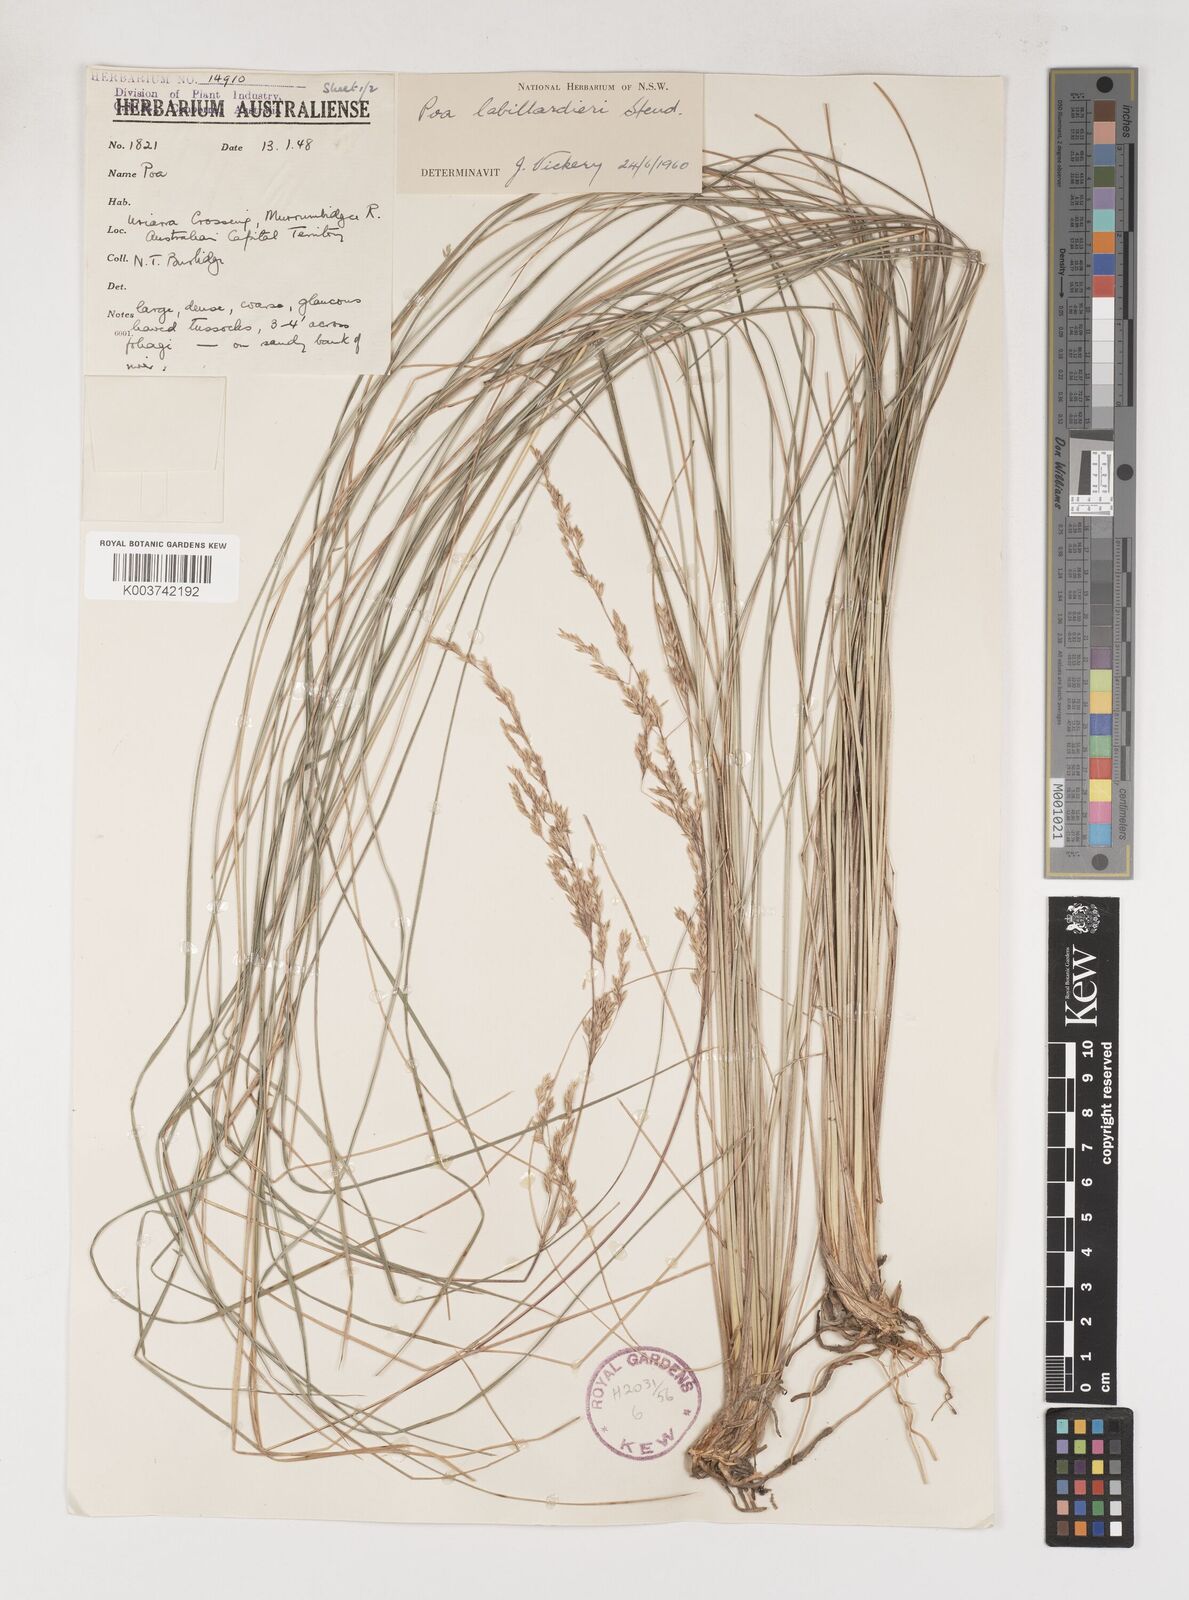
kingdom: Plantae
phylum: Tracheophyta
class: Liliopsida
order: Poales
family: Poaceae
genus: Poa
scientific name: Poa labillardierei
